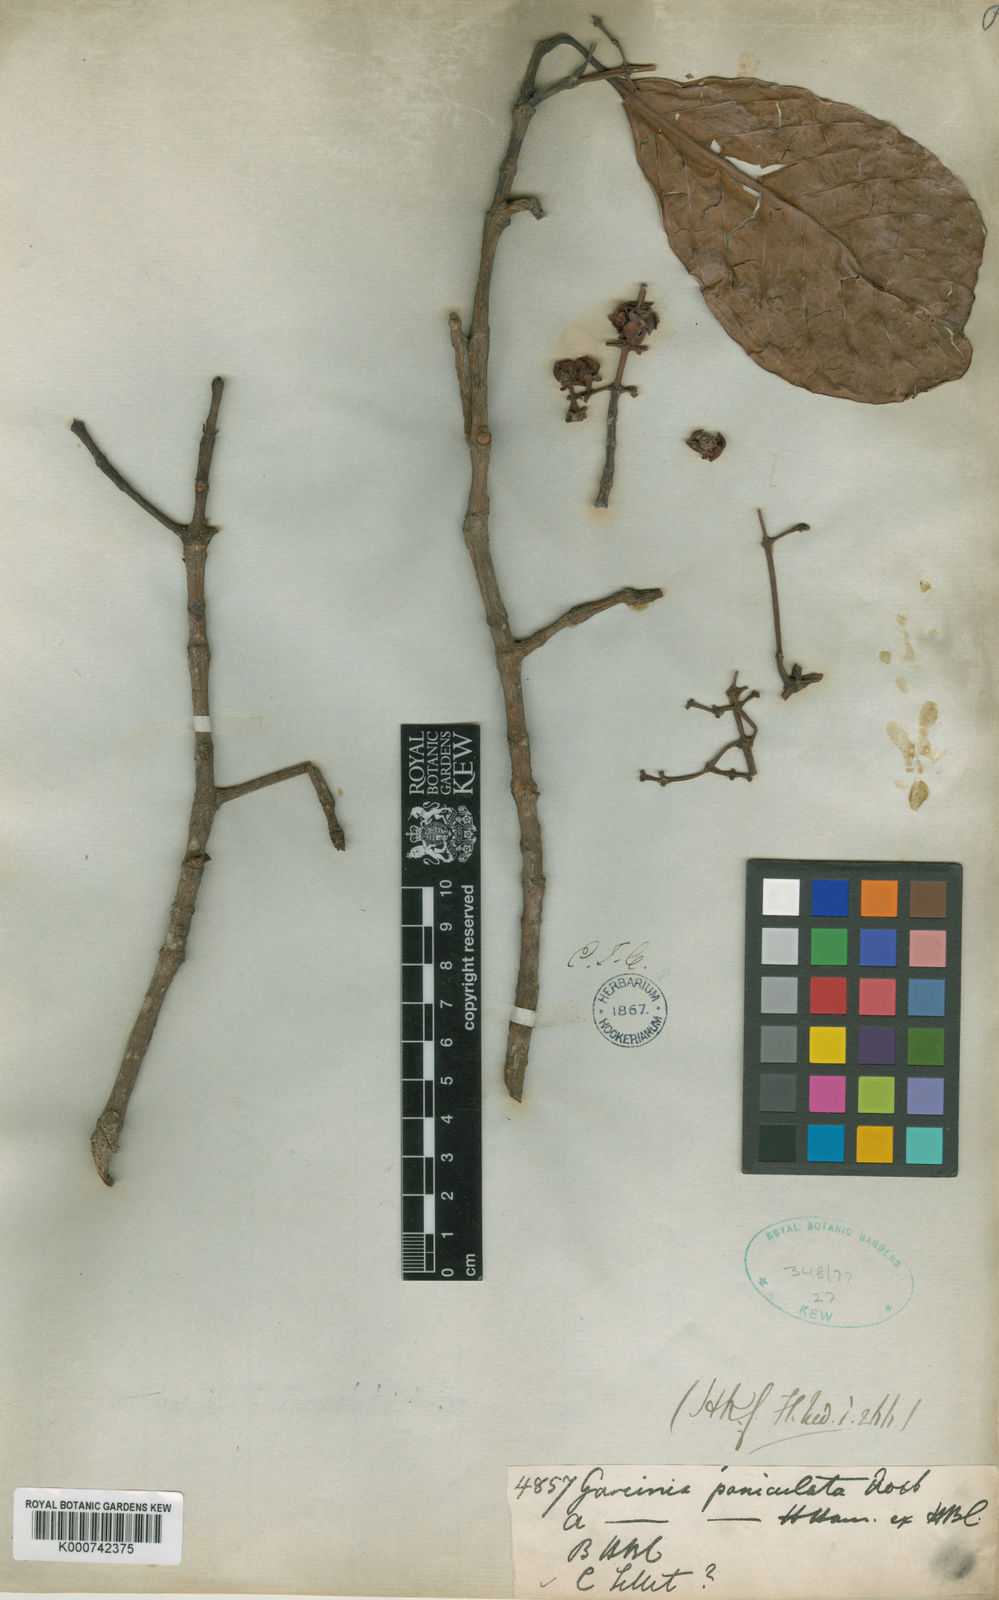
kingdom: Plantae
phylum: Tracheophyta
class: Magnoliopsida
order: Malpighiales
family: Clusiaceae
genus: Garcinia
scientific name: Garcinia
